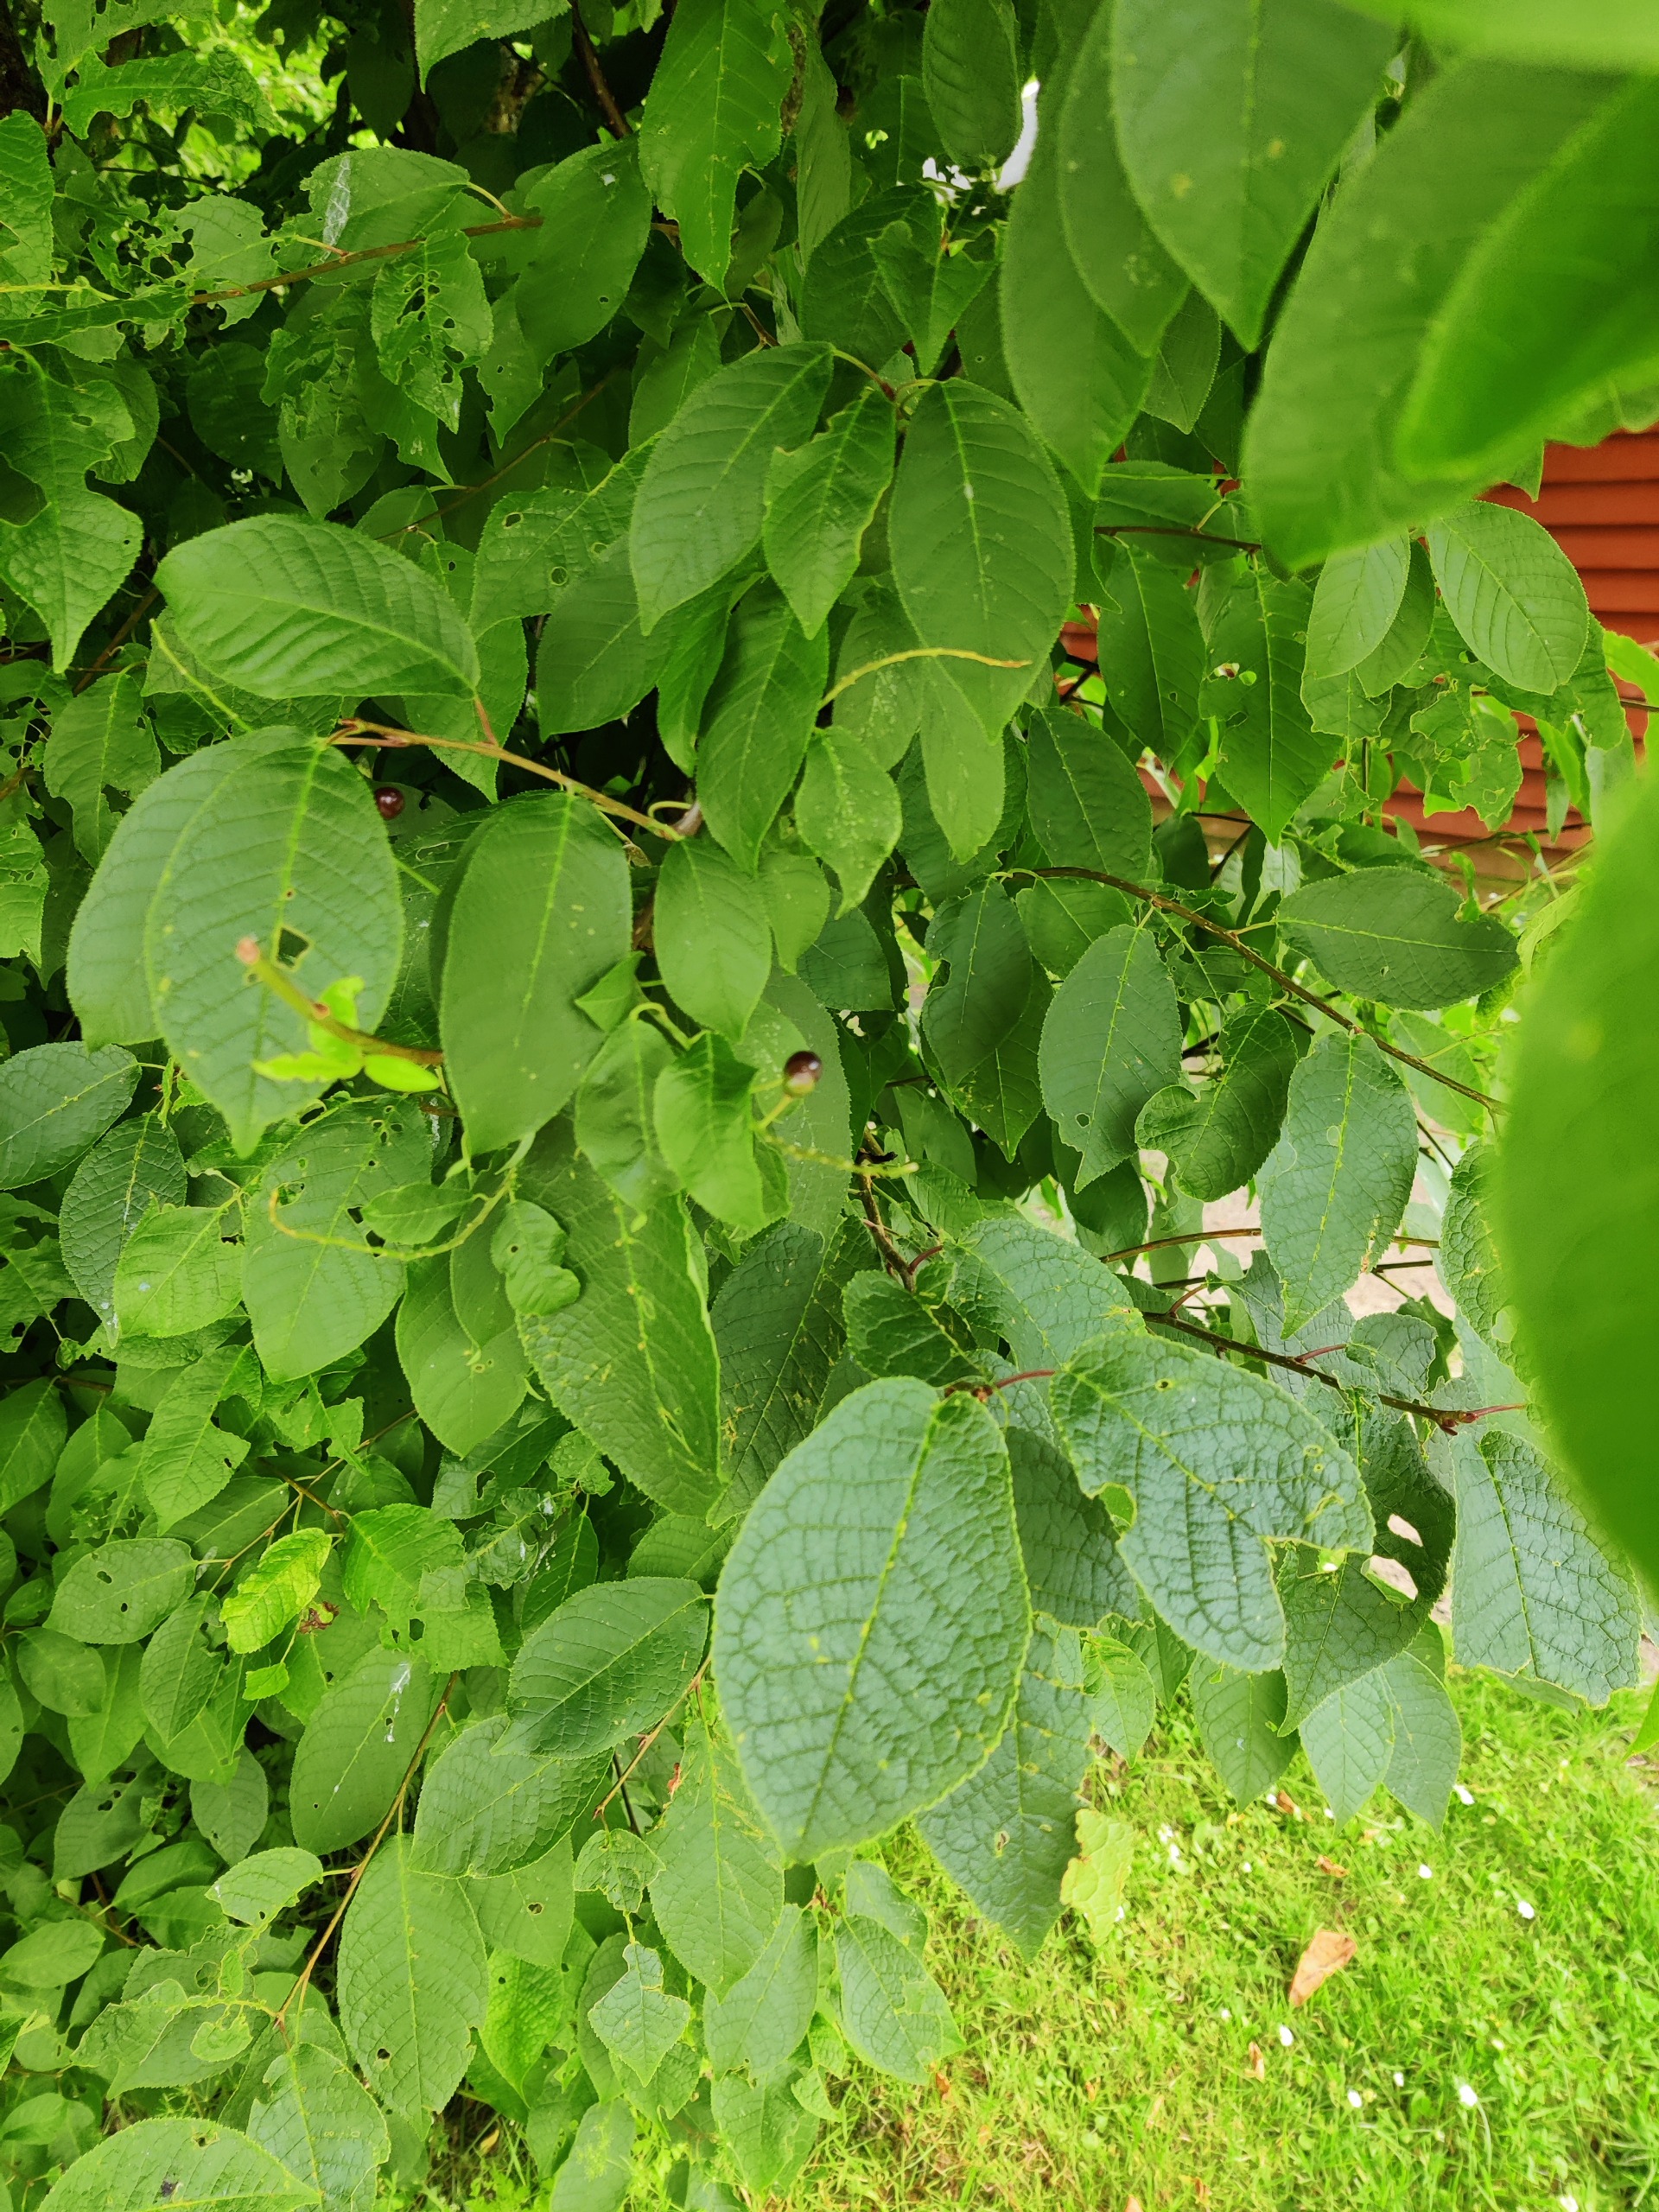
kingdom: Plantae
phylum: Tracheophyta
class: Magnoliopsida
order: Rosales
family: Rosaceae
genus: Prunus
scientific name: Prunus padus
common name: Almindelig hæg
